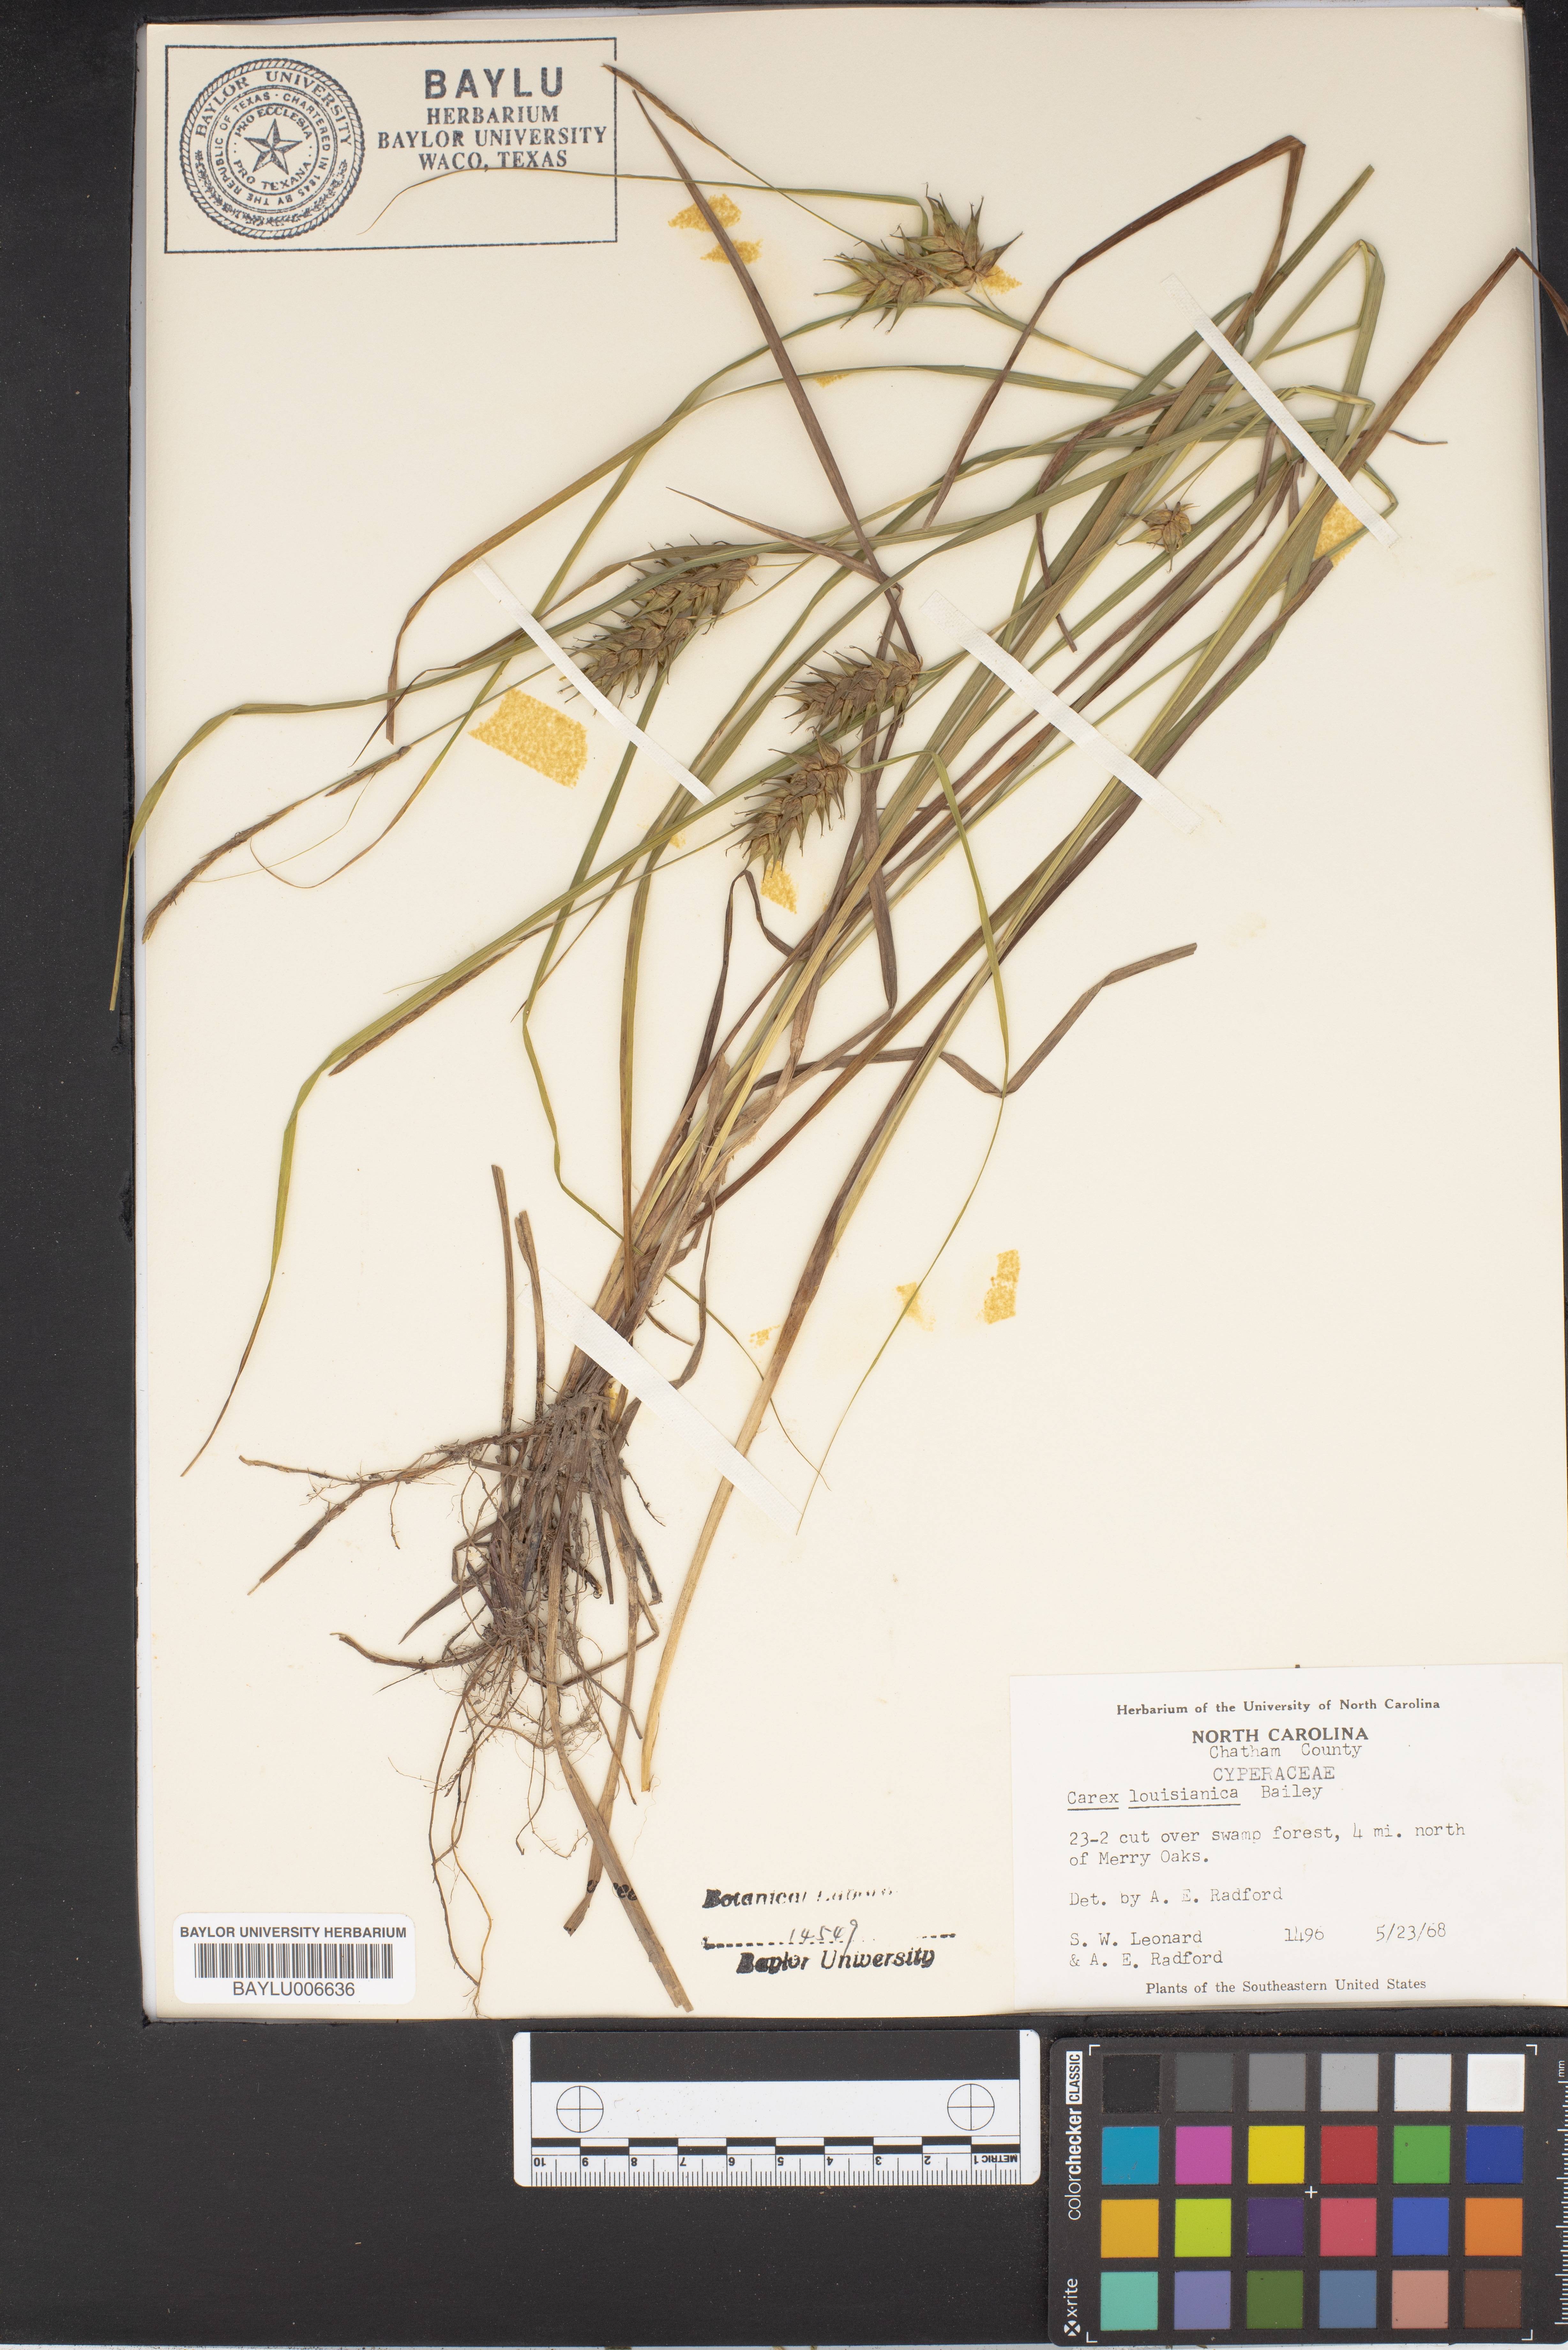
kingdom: Plantae
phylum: Tracheophyta
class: Liliopsida
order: Poales
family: Cyperaceae
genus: Carex
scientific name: Carex louisianica
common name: Louisiana sedge
